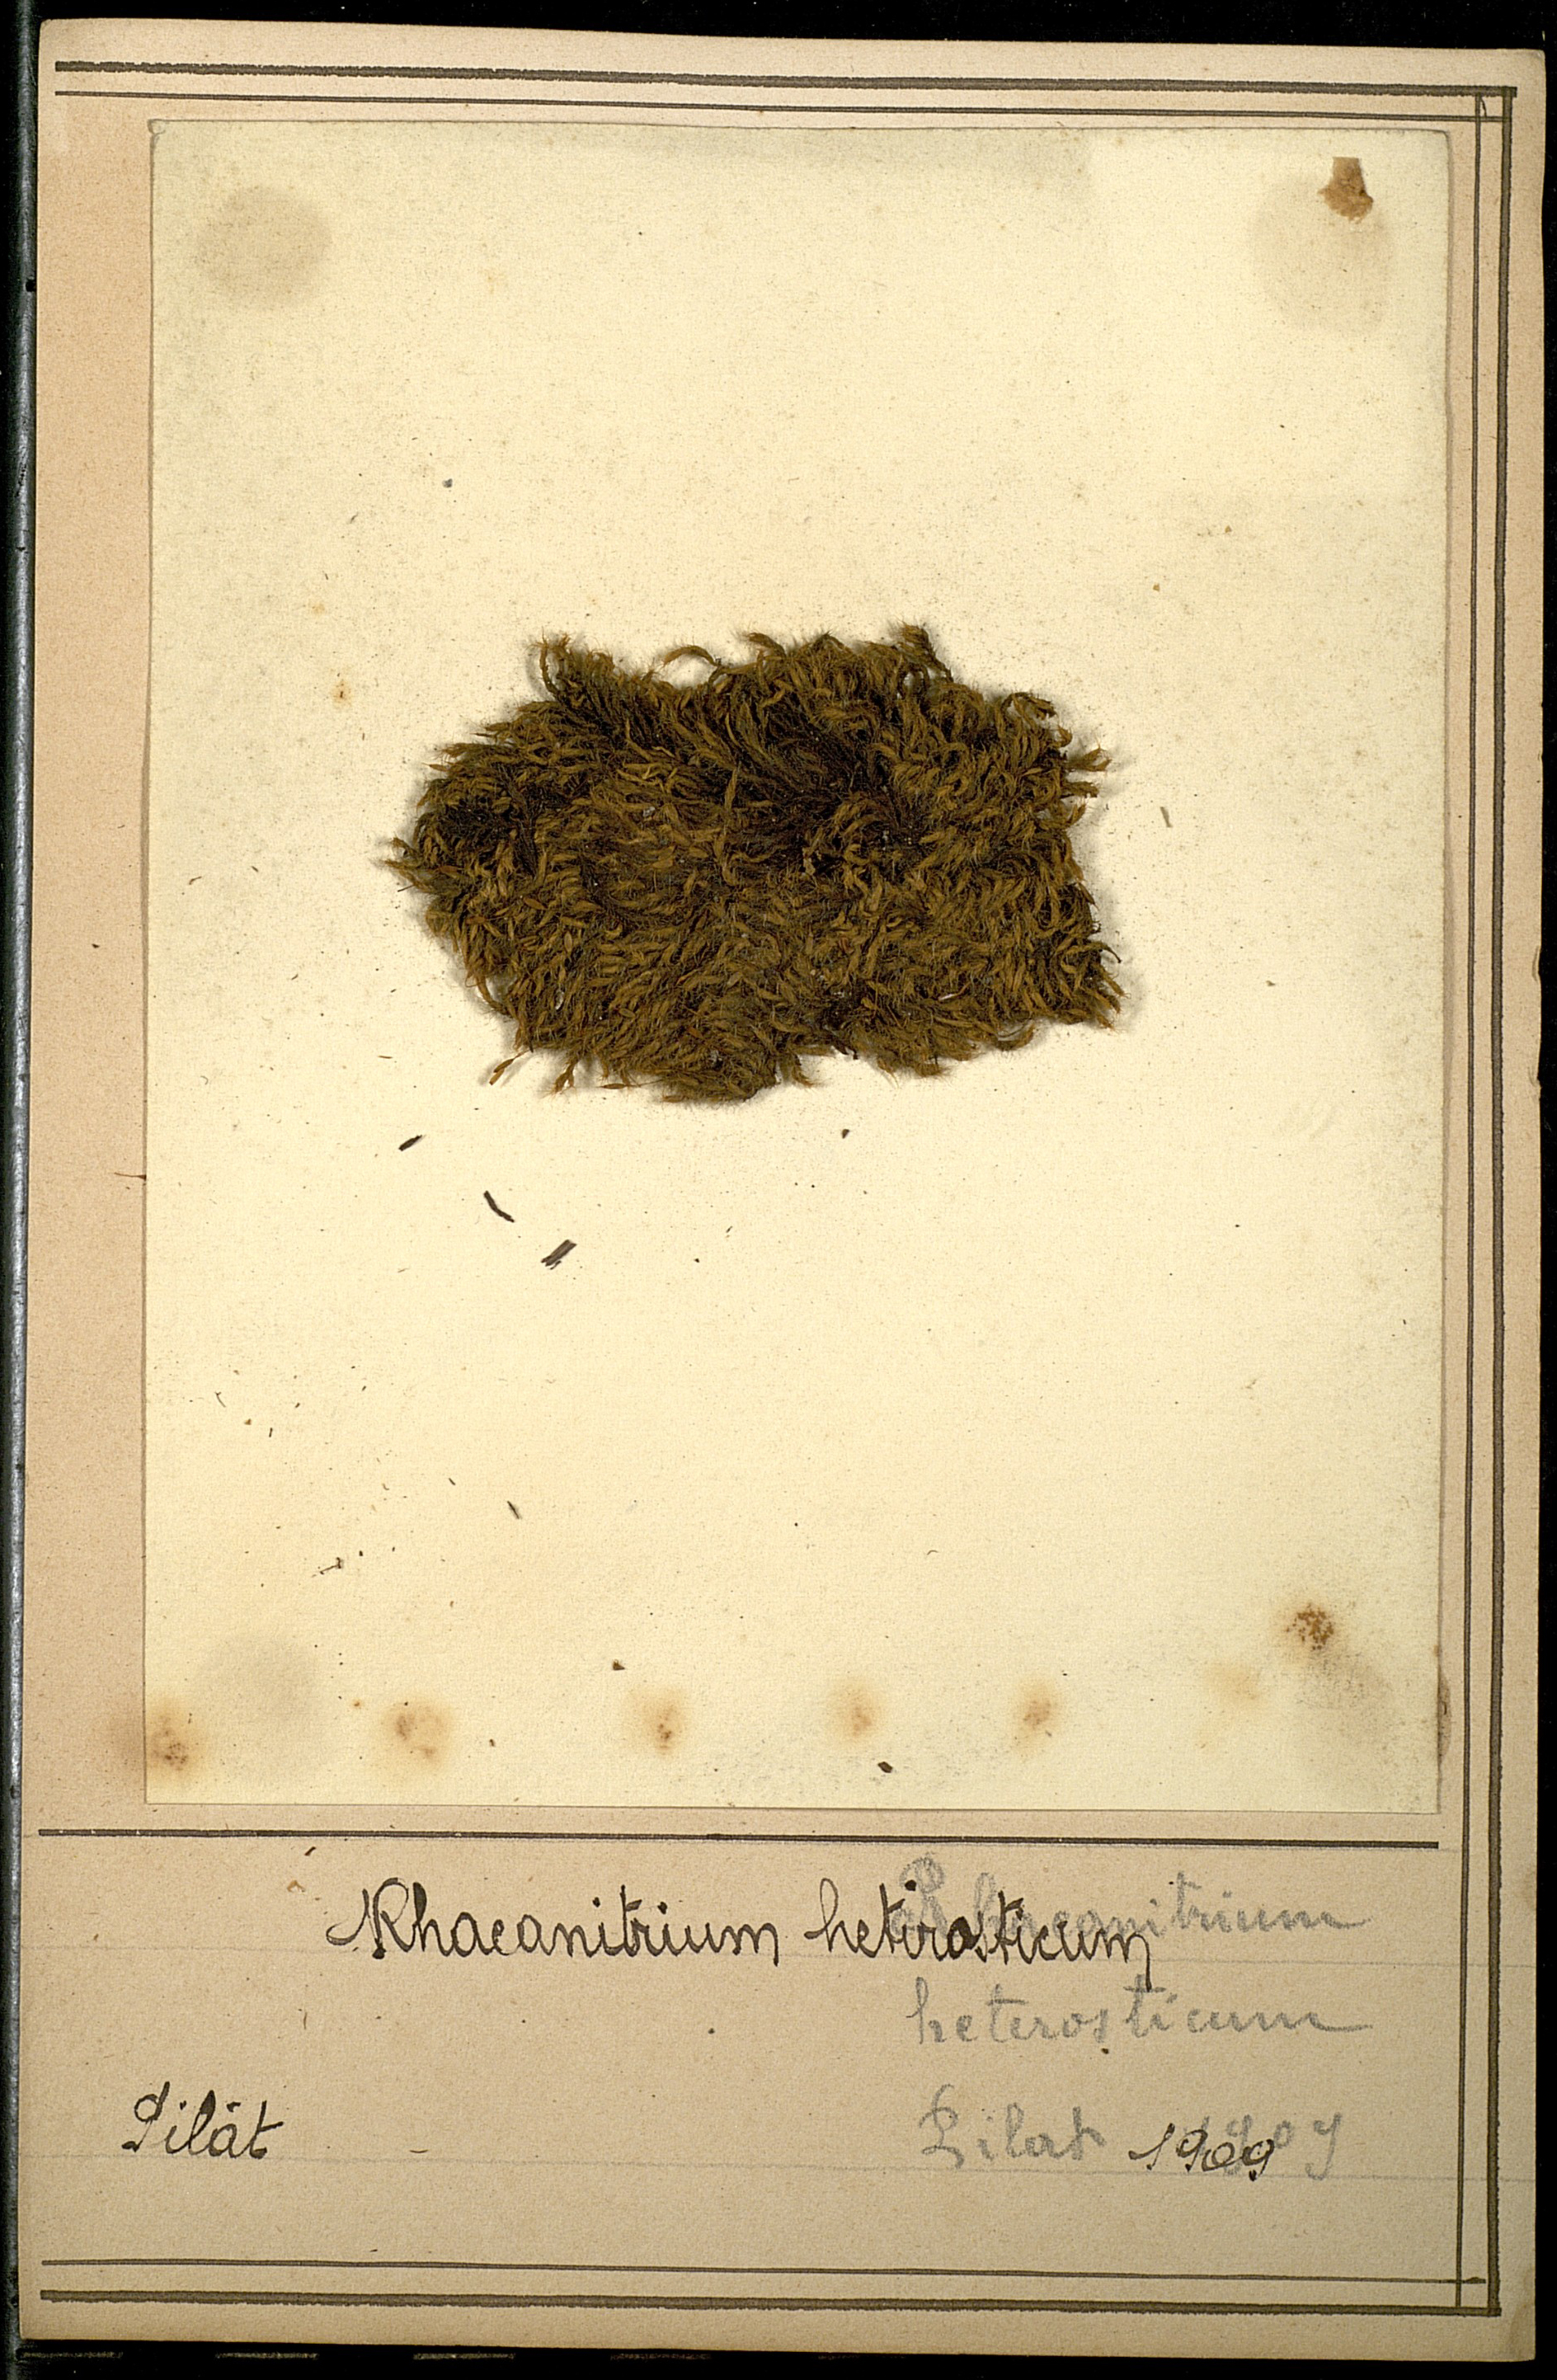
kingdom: Plantae
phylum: Bryophyta
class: Bryopsida
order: Grimmiales
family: Grimmiaceae
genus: Bucklandiella
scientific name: Bucklandiella heterosticha
